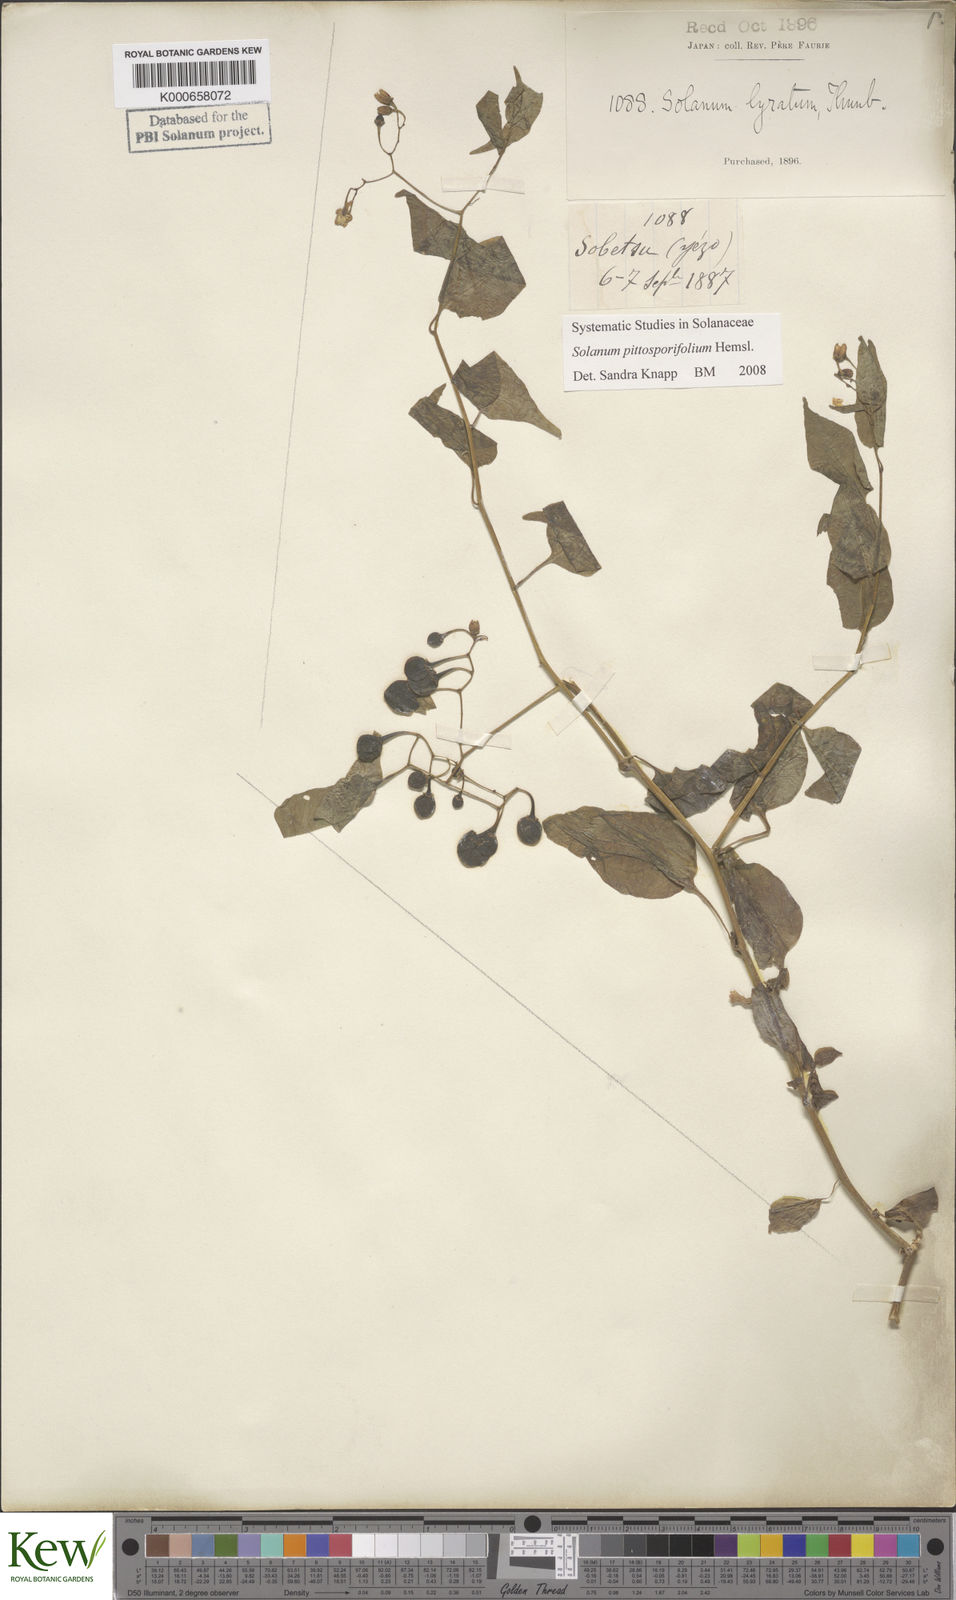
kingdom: Plantae
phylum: Tracheophyta
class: Magnoliopsida
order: Solanales
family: Solanaceae
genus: Solanum
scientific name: Solanum pittosporifolium
